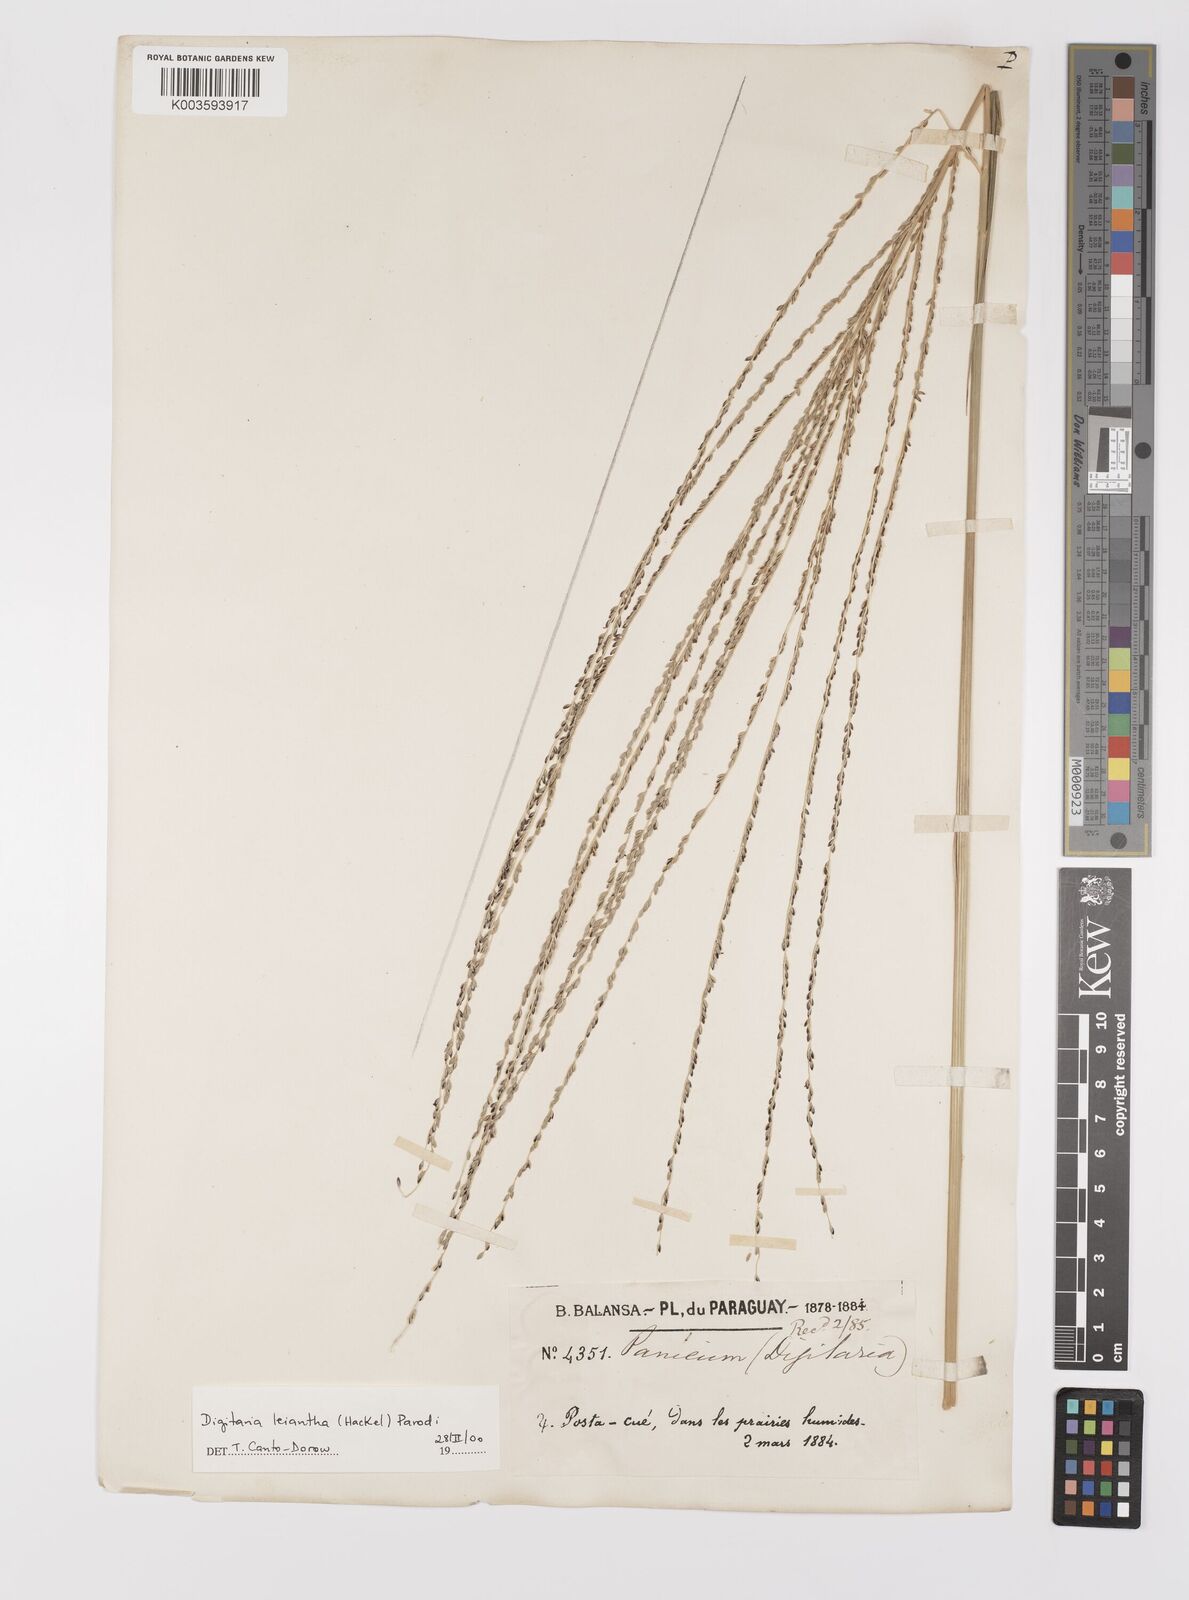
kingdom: Plantae
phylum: Tracheophyta
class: Liliopsida
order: Poales
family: Poaceae
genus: Digitaria
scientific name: Digitaria gerdesii
